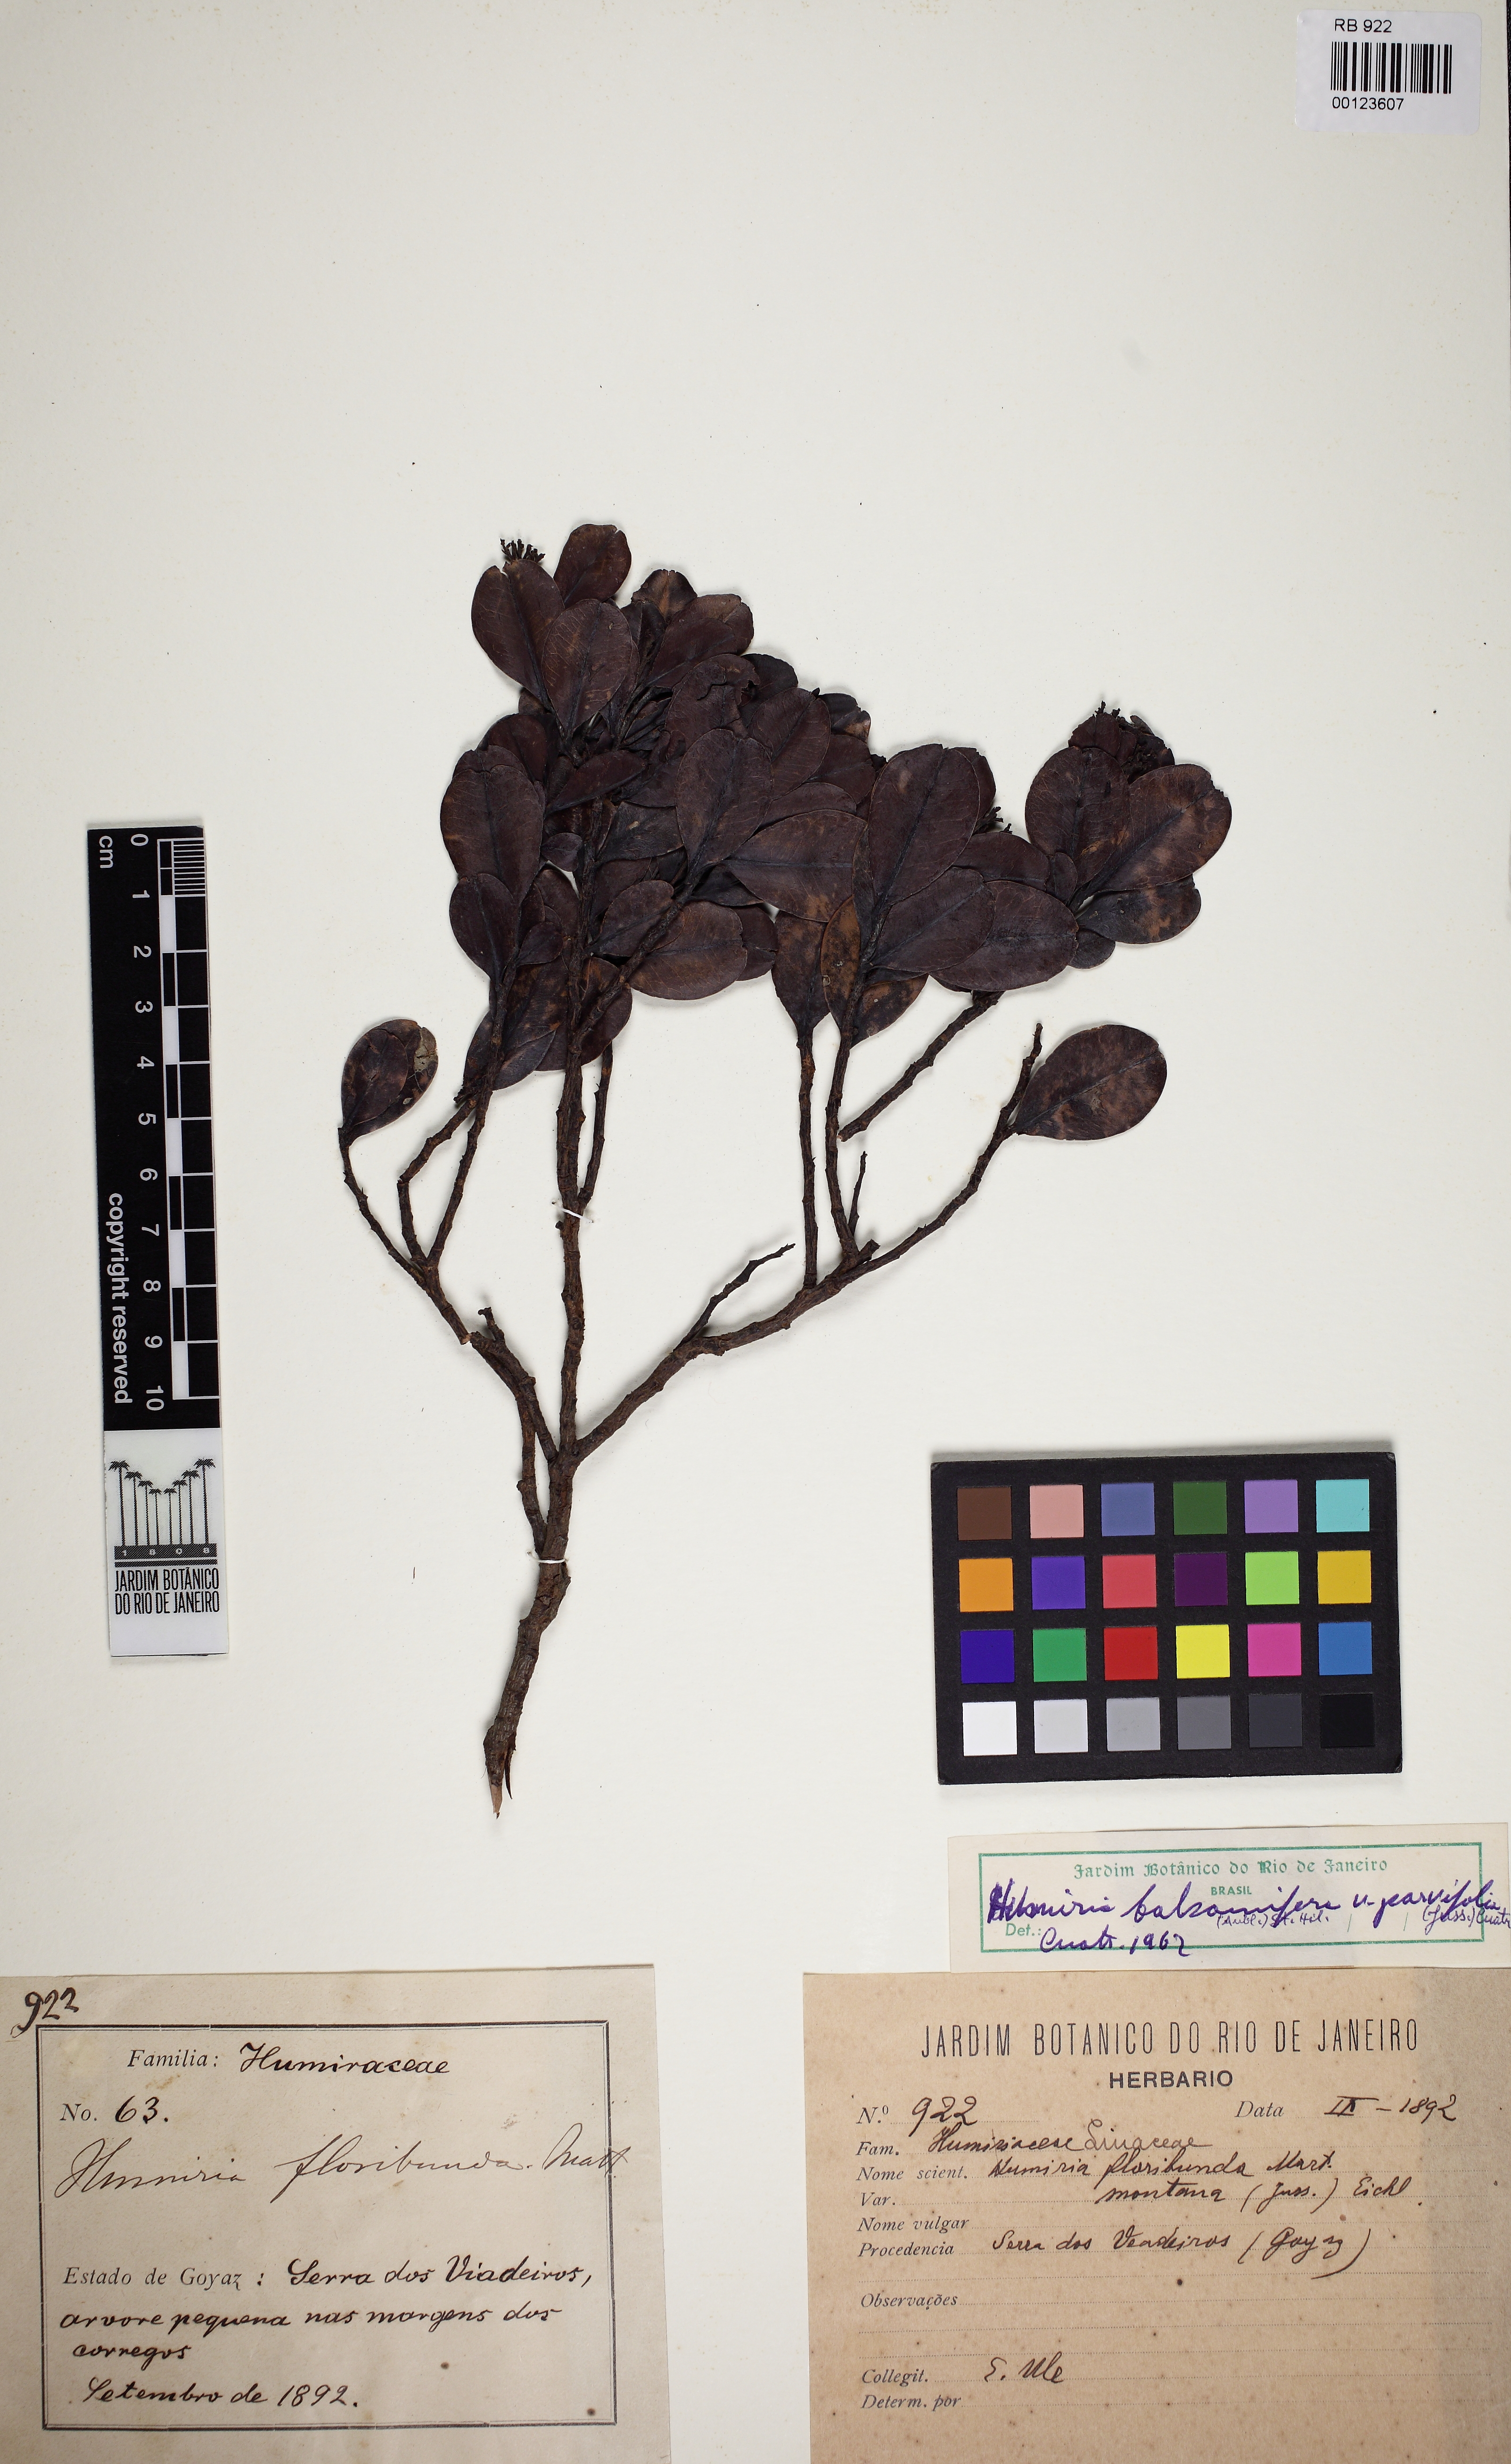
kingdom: Plantae
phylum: Tracheophyta
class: Magnoliopsida
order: Malpighiales
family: Humiriaceae
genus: Humiria
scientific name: Humiria parvifolia
